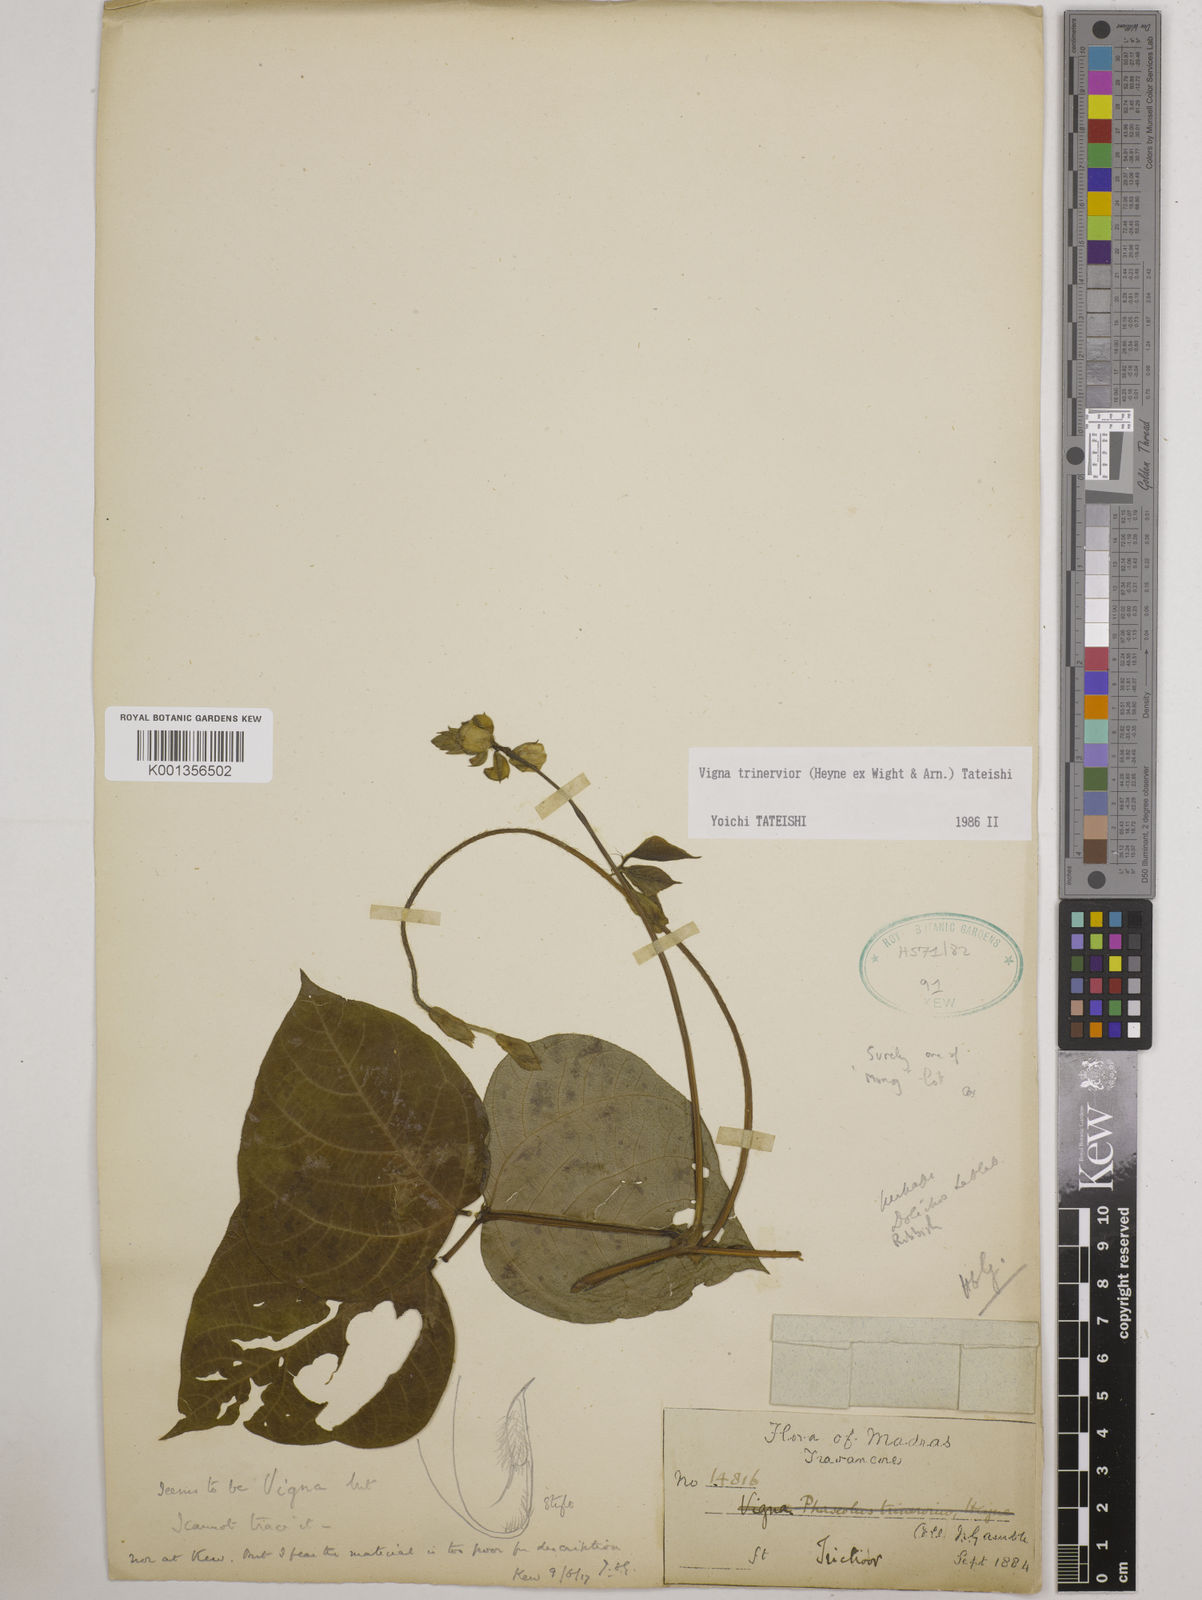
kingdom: Plantae
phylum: Tracheophyta
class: Magnoliopsida
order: Fabales
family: Fabaceae
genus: Vigna
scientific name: Vigna radiata
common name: Mung-bean
